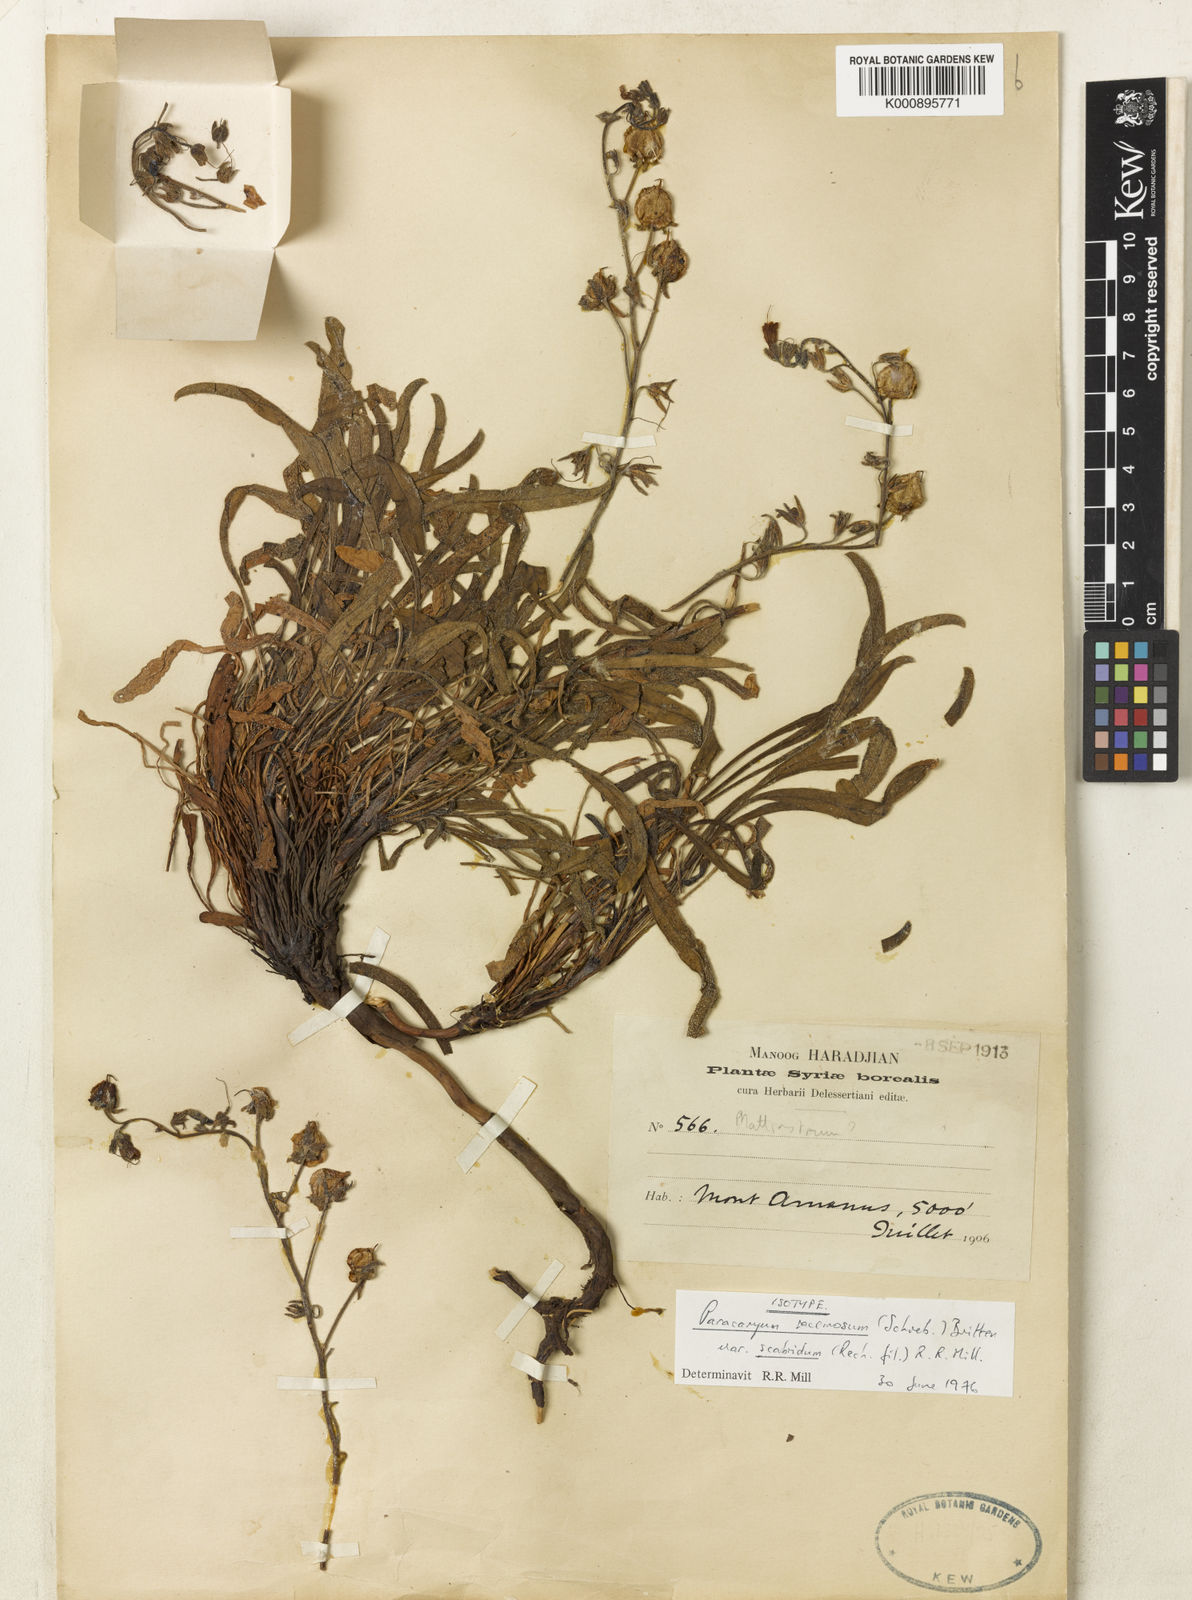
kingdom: Plantae
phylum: Tracheophyta
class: Magnoliopsida
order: Boraginales
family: Boraginaceae
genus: Paracaryum
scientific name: Paracaryum racemosum
